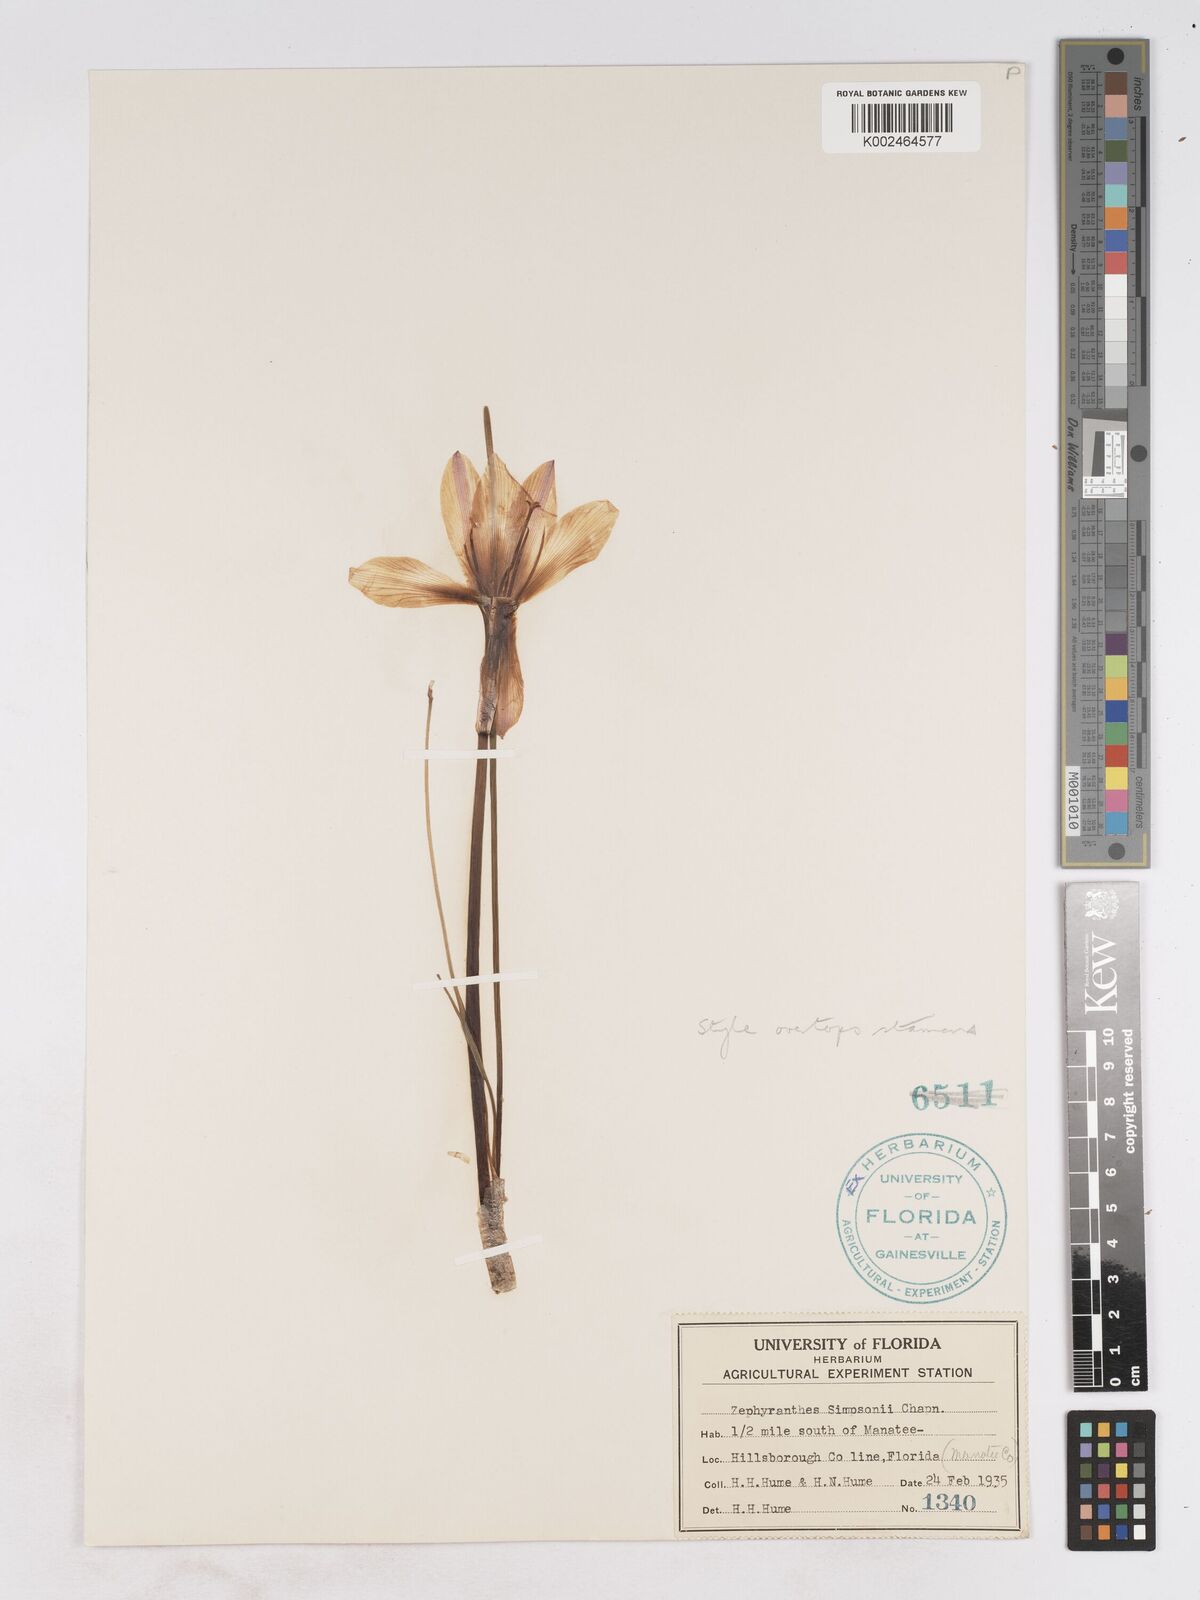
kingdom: Plantae
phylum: Tracheophyta
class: Liliopsida
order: Asparagales
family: Amaryllidaceae
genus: Zephyranthes
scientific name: Zephyranthes simpsonii
